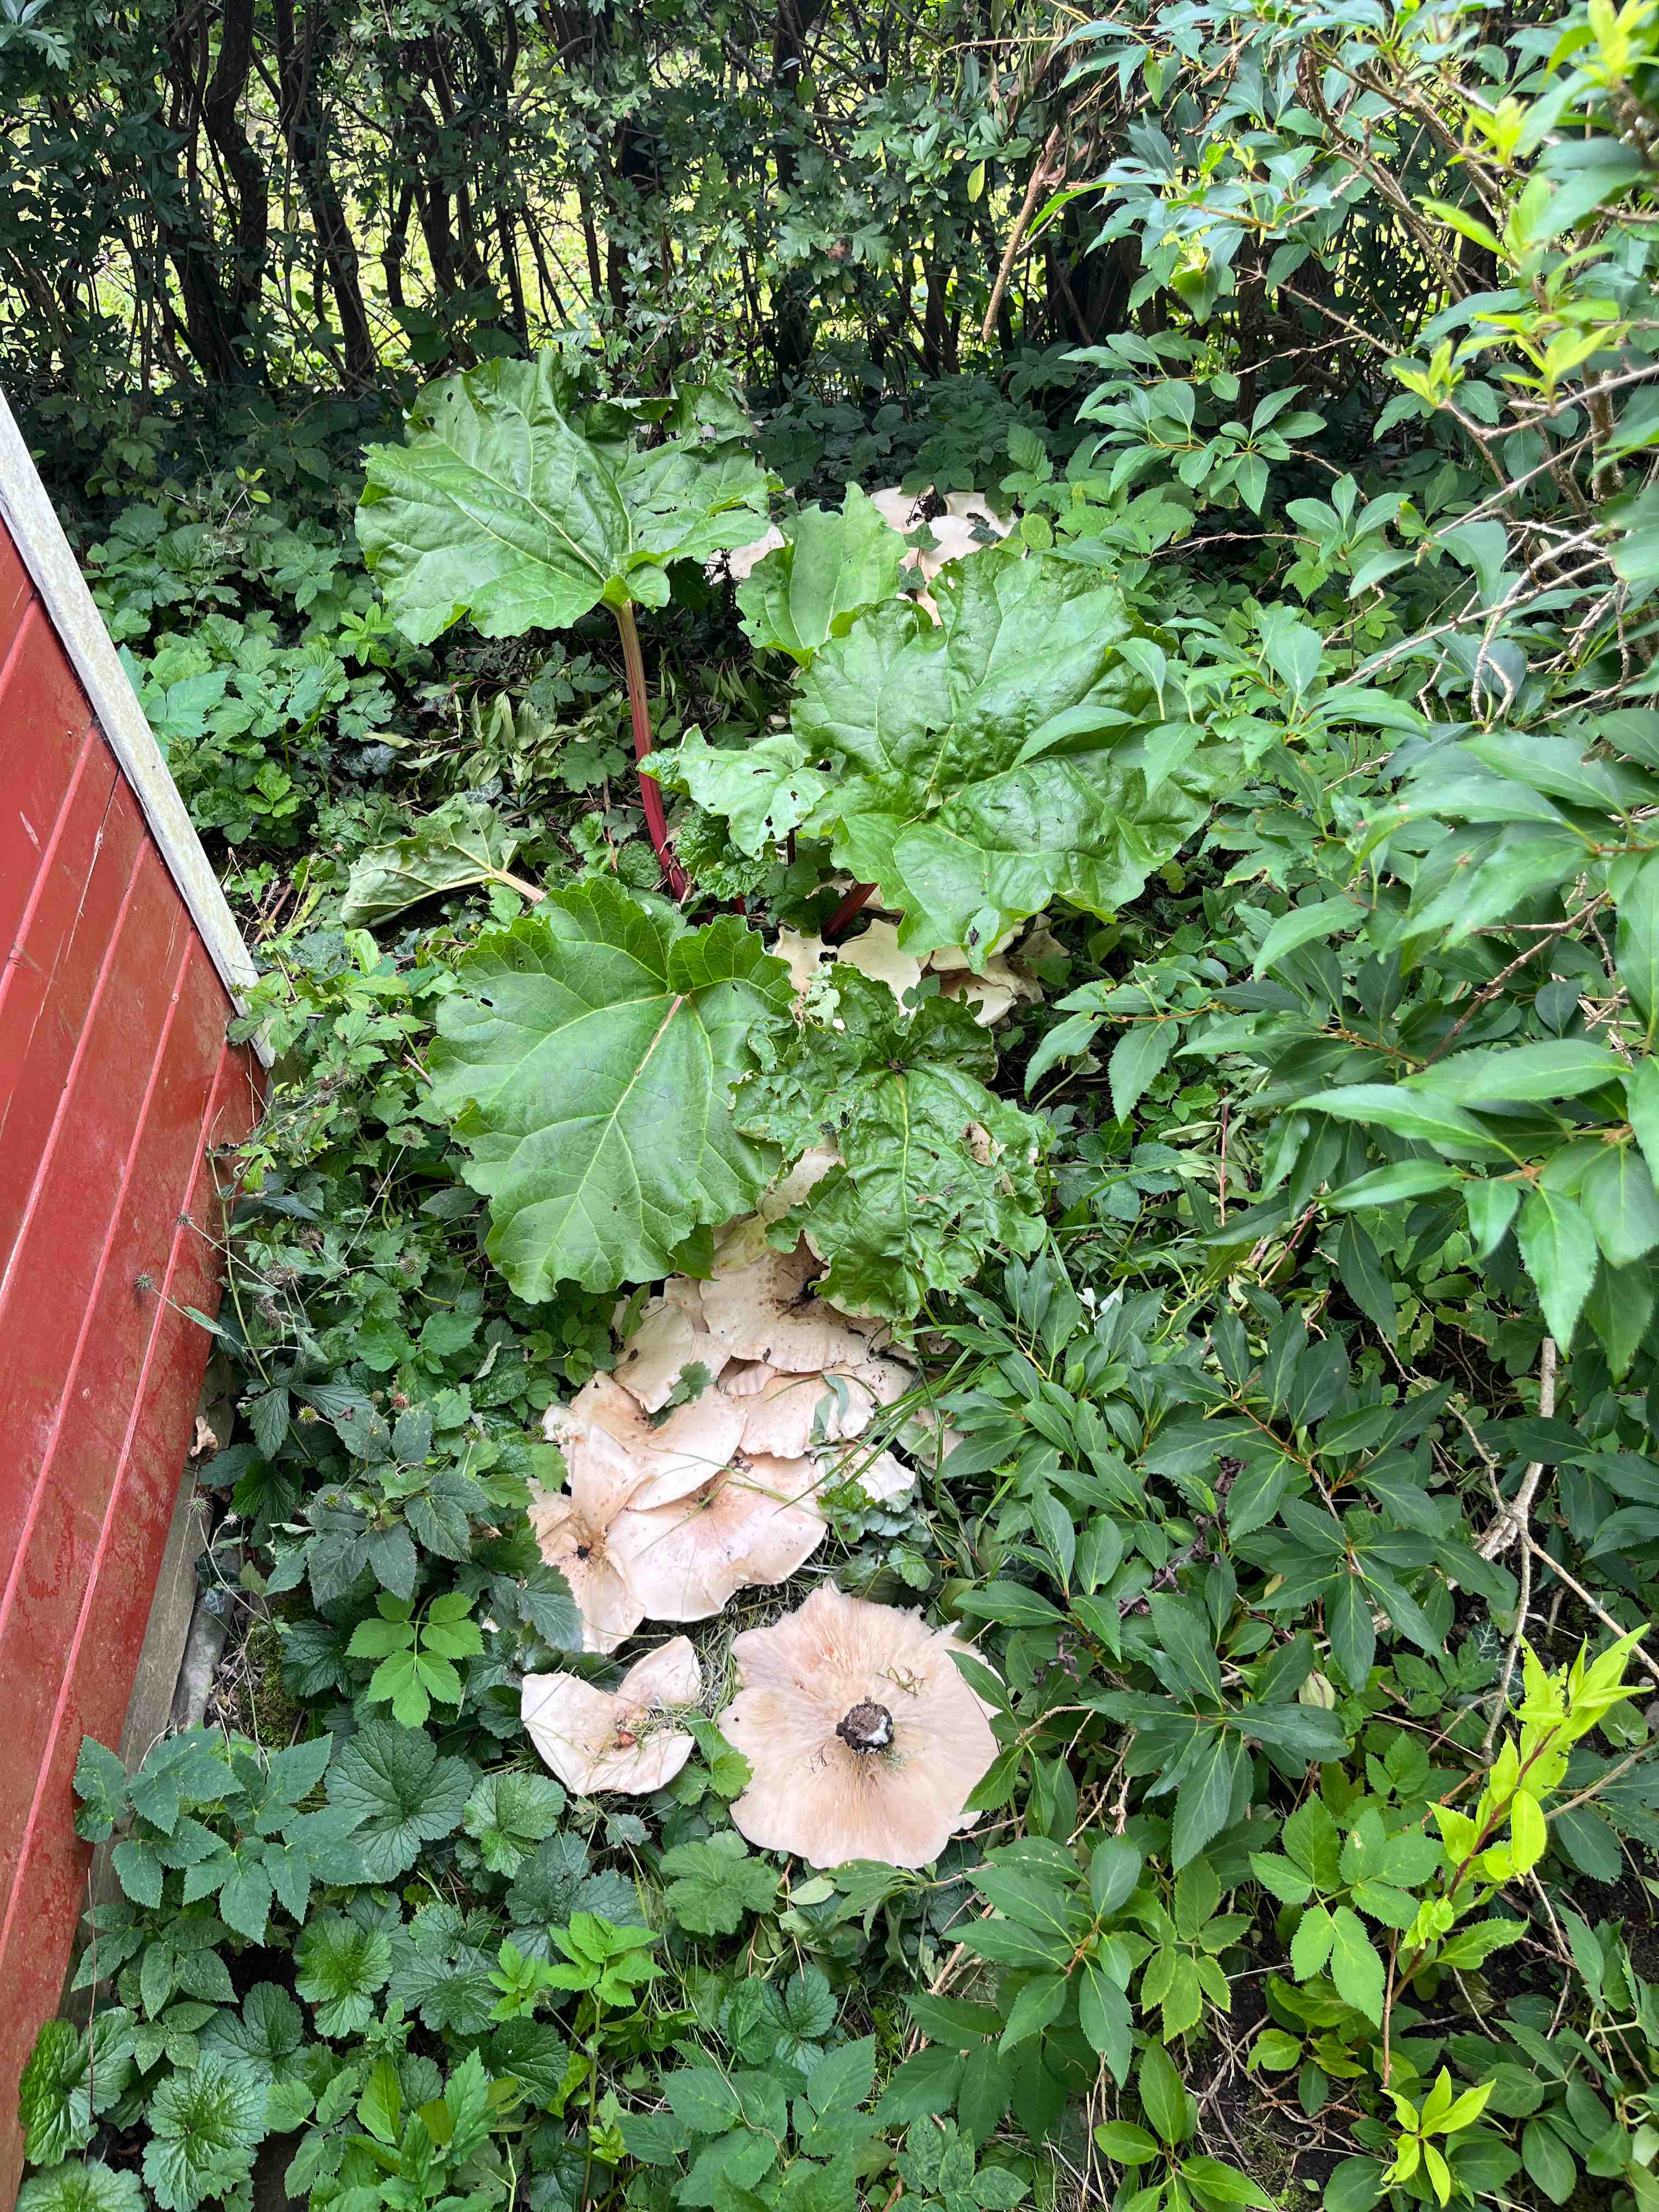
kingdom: Fungi
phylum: Basidiomycota
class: Agaricomycetes
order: Agaricales
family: Tricholomataceae
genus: Aspropaxillus
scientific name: Aspropaxillus giganteus
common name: kæmpe-tragtridderhat
